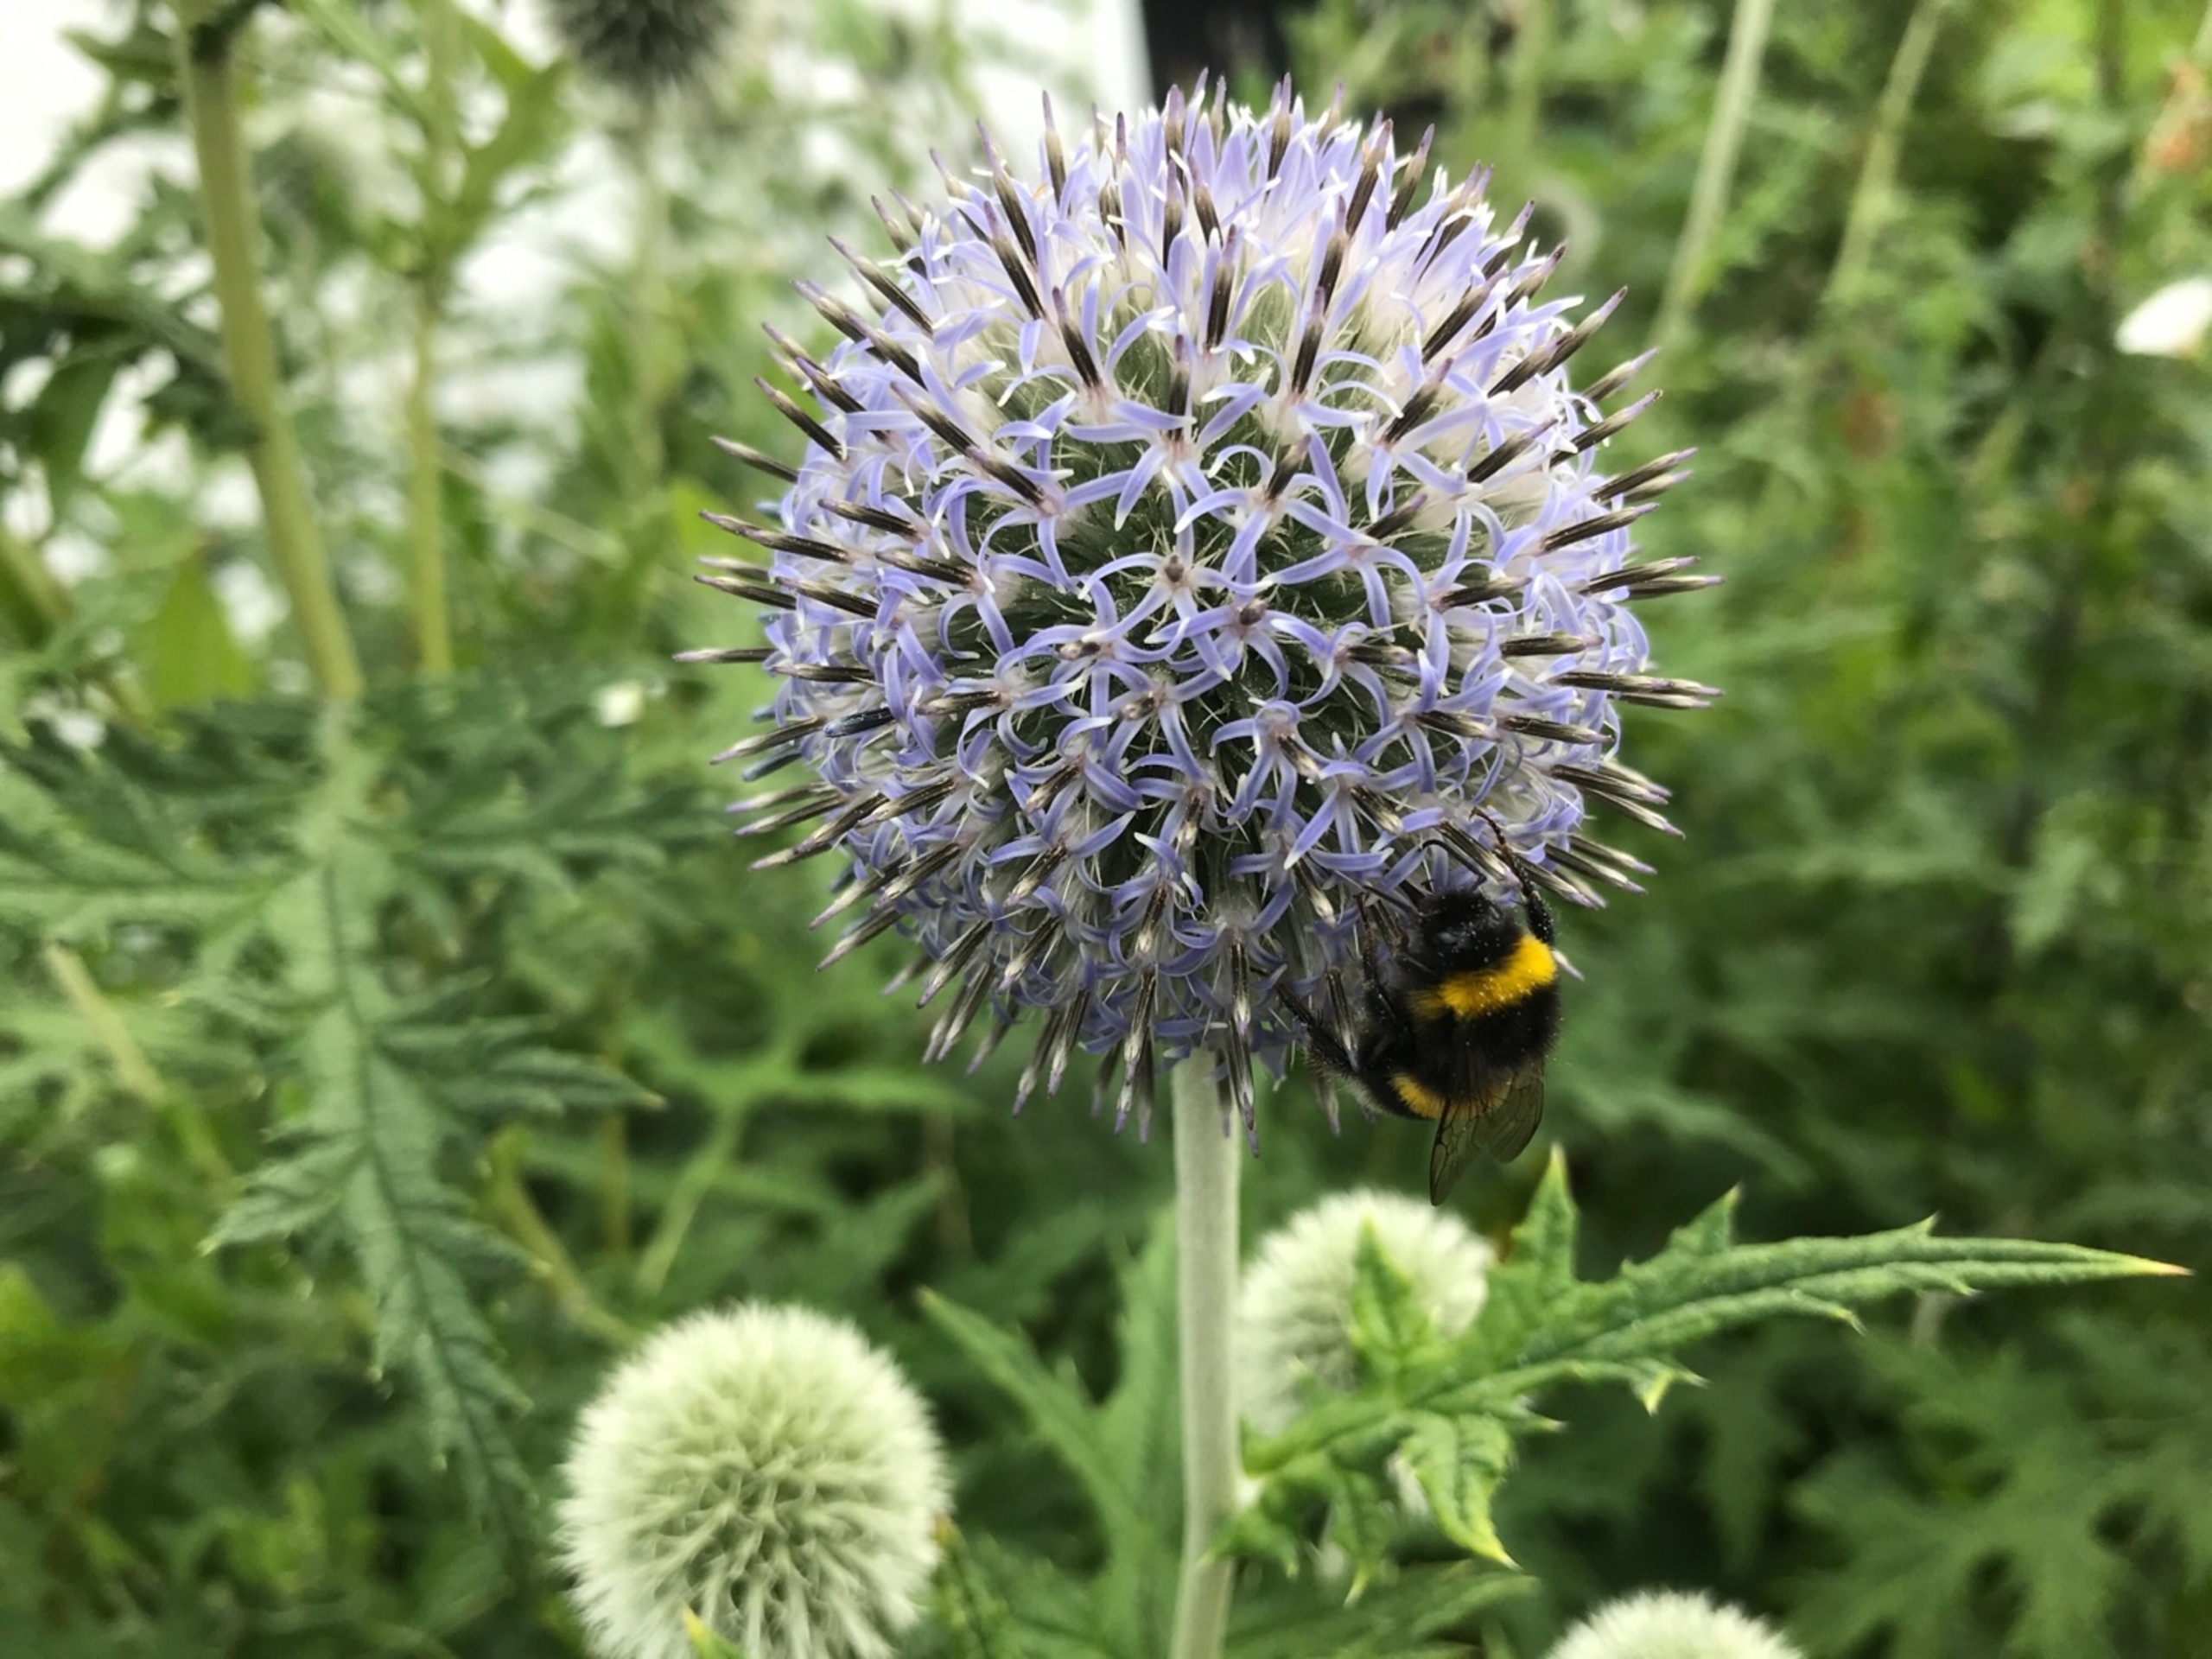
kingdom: Plantae
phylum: Tracheophyta
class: Magnoliopsida
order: Asterales
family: Asteraceae
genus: Echinops
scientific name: Echinops exaltatus
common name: Høj tidselkugle
